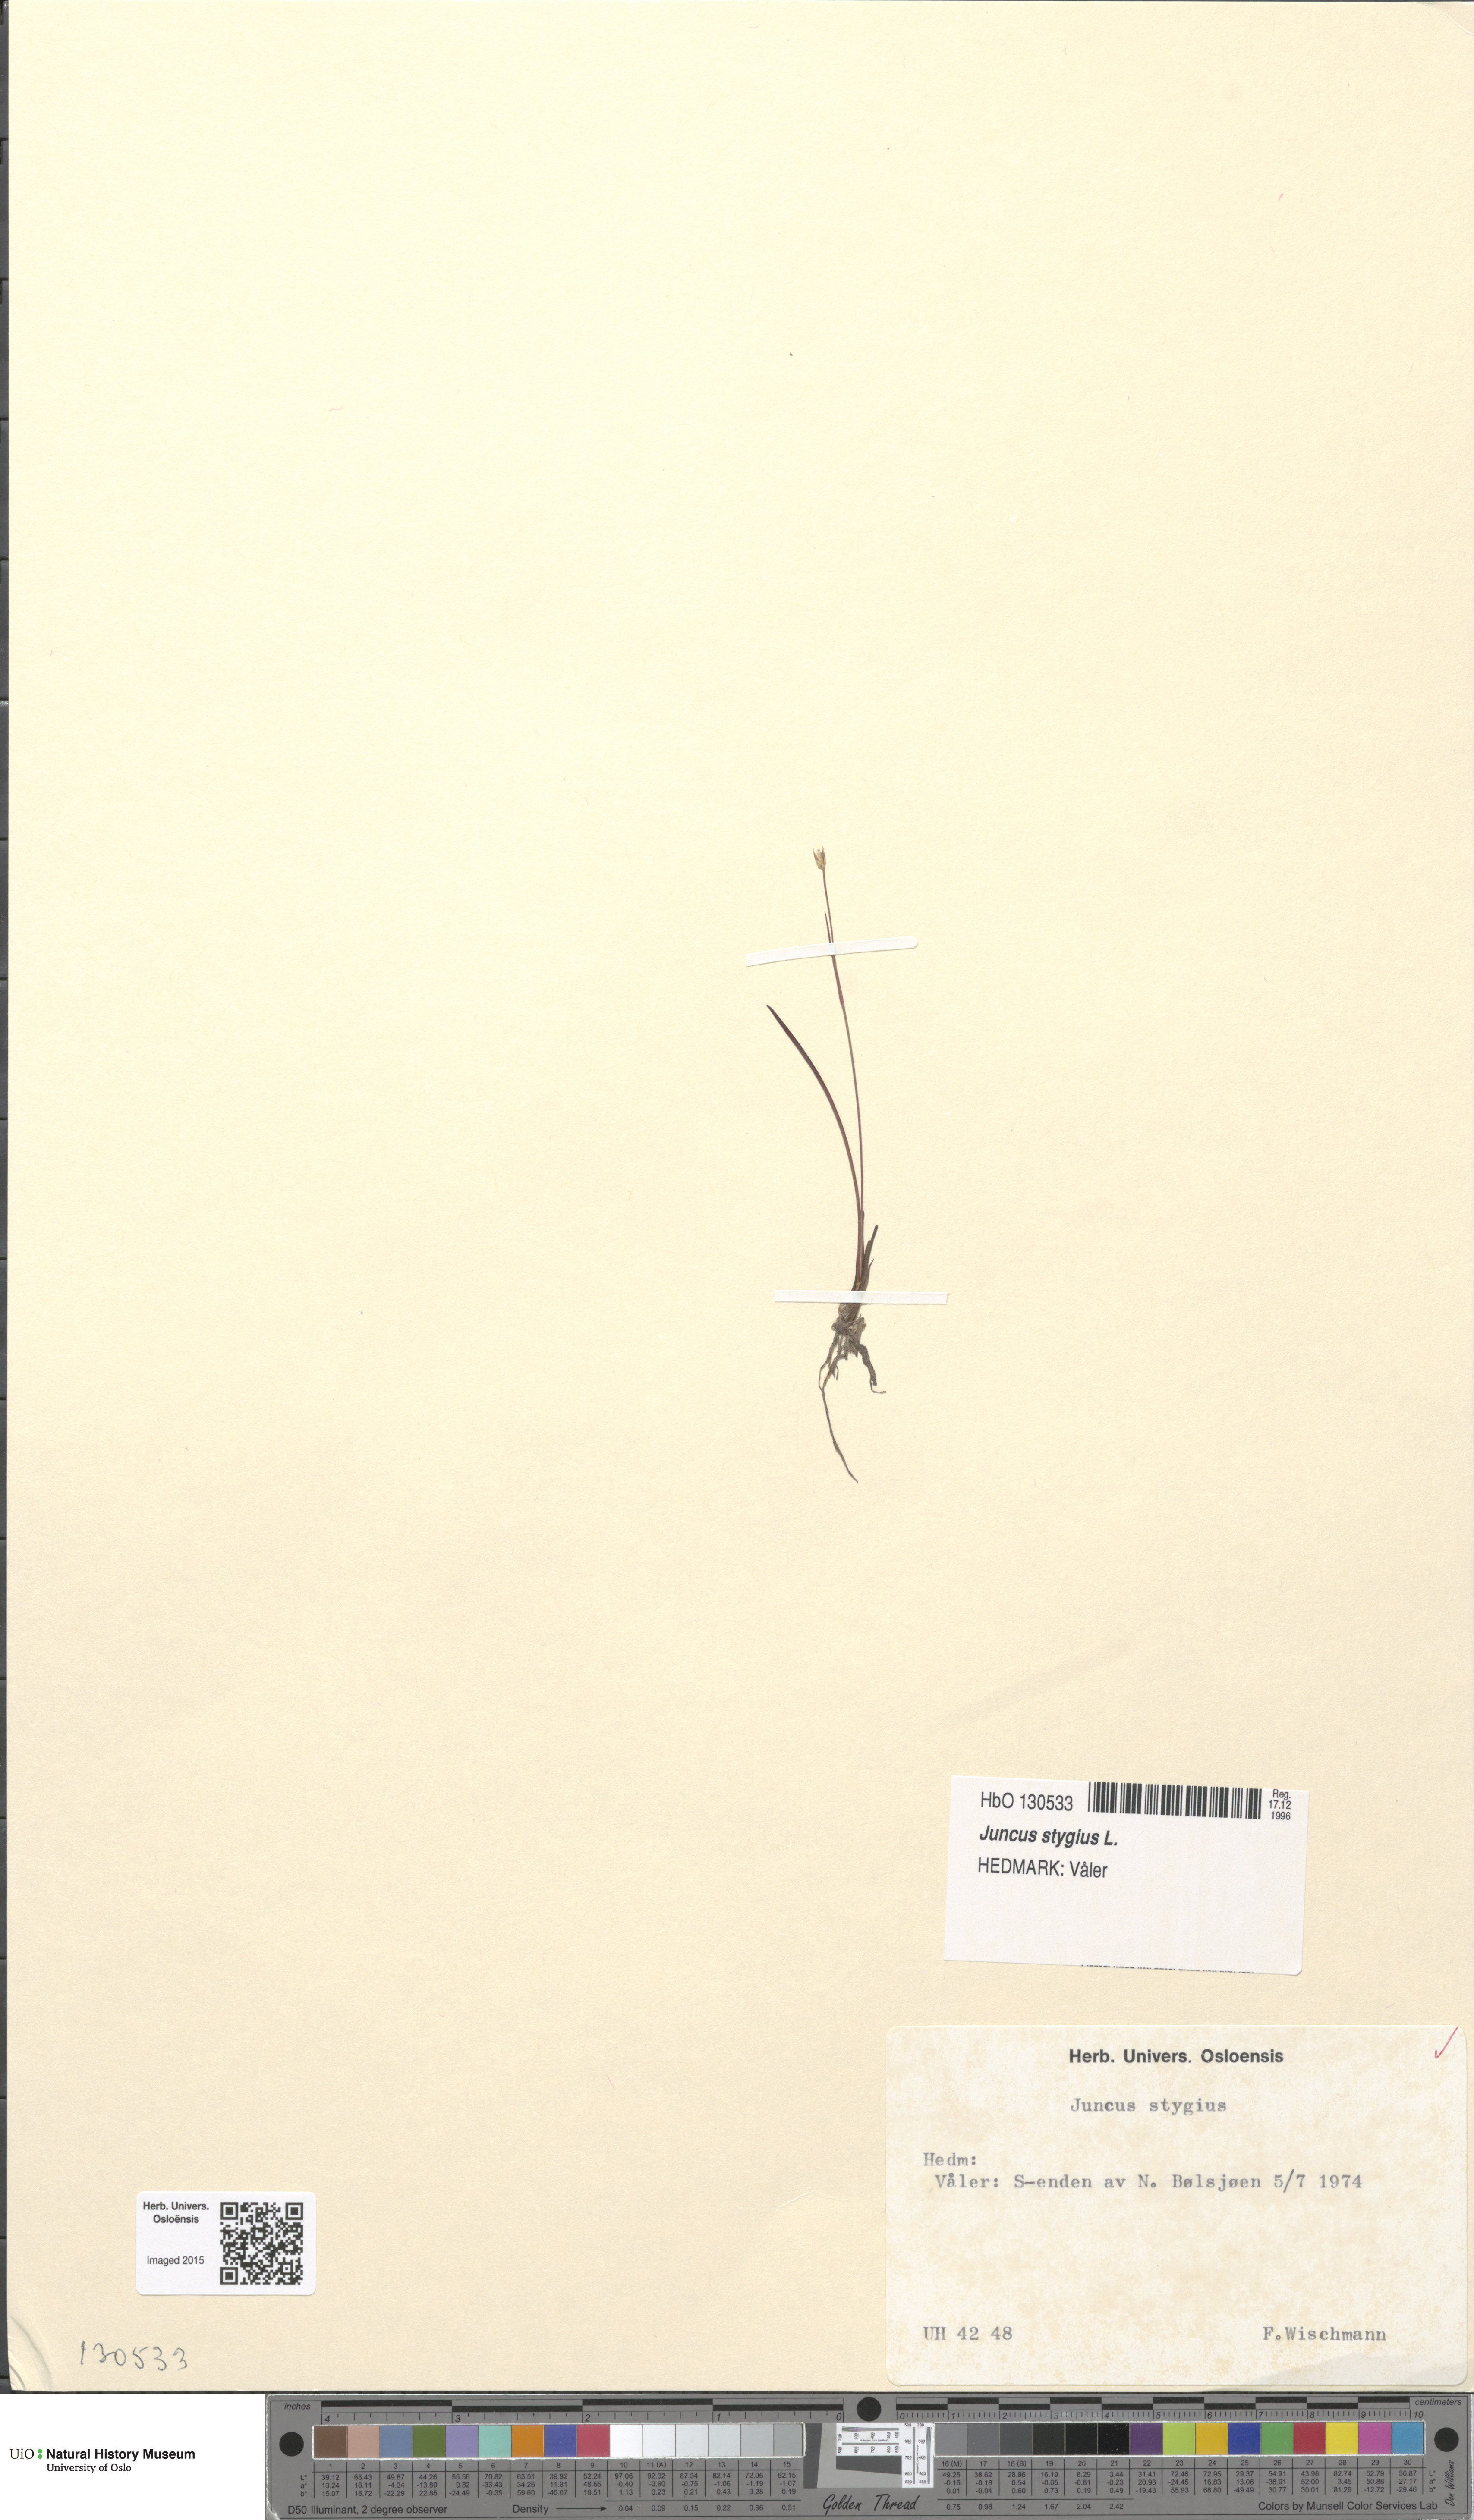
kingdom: Plantae
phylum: Tracheophyta
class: Liliopsida
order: Poales
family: Juncaceae
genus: Juncus
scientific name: Juncus stygius
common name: Bog rush
